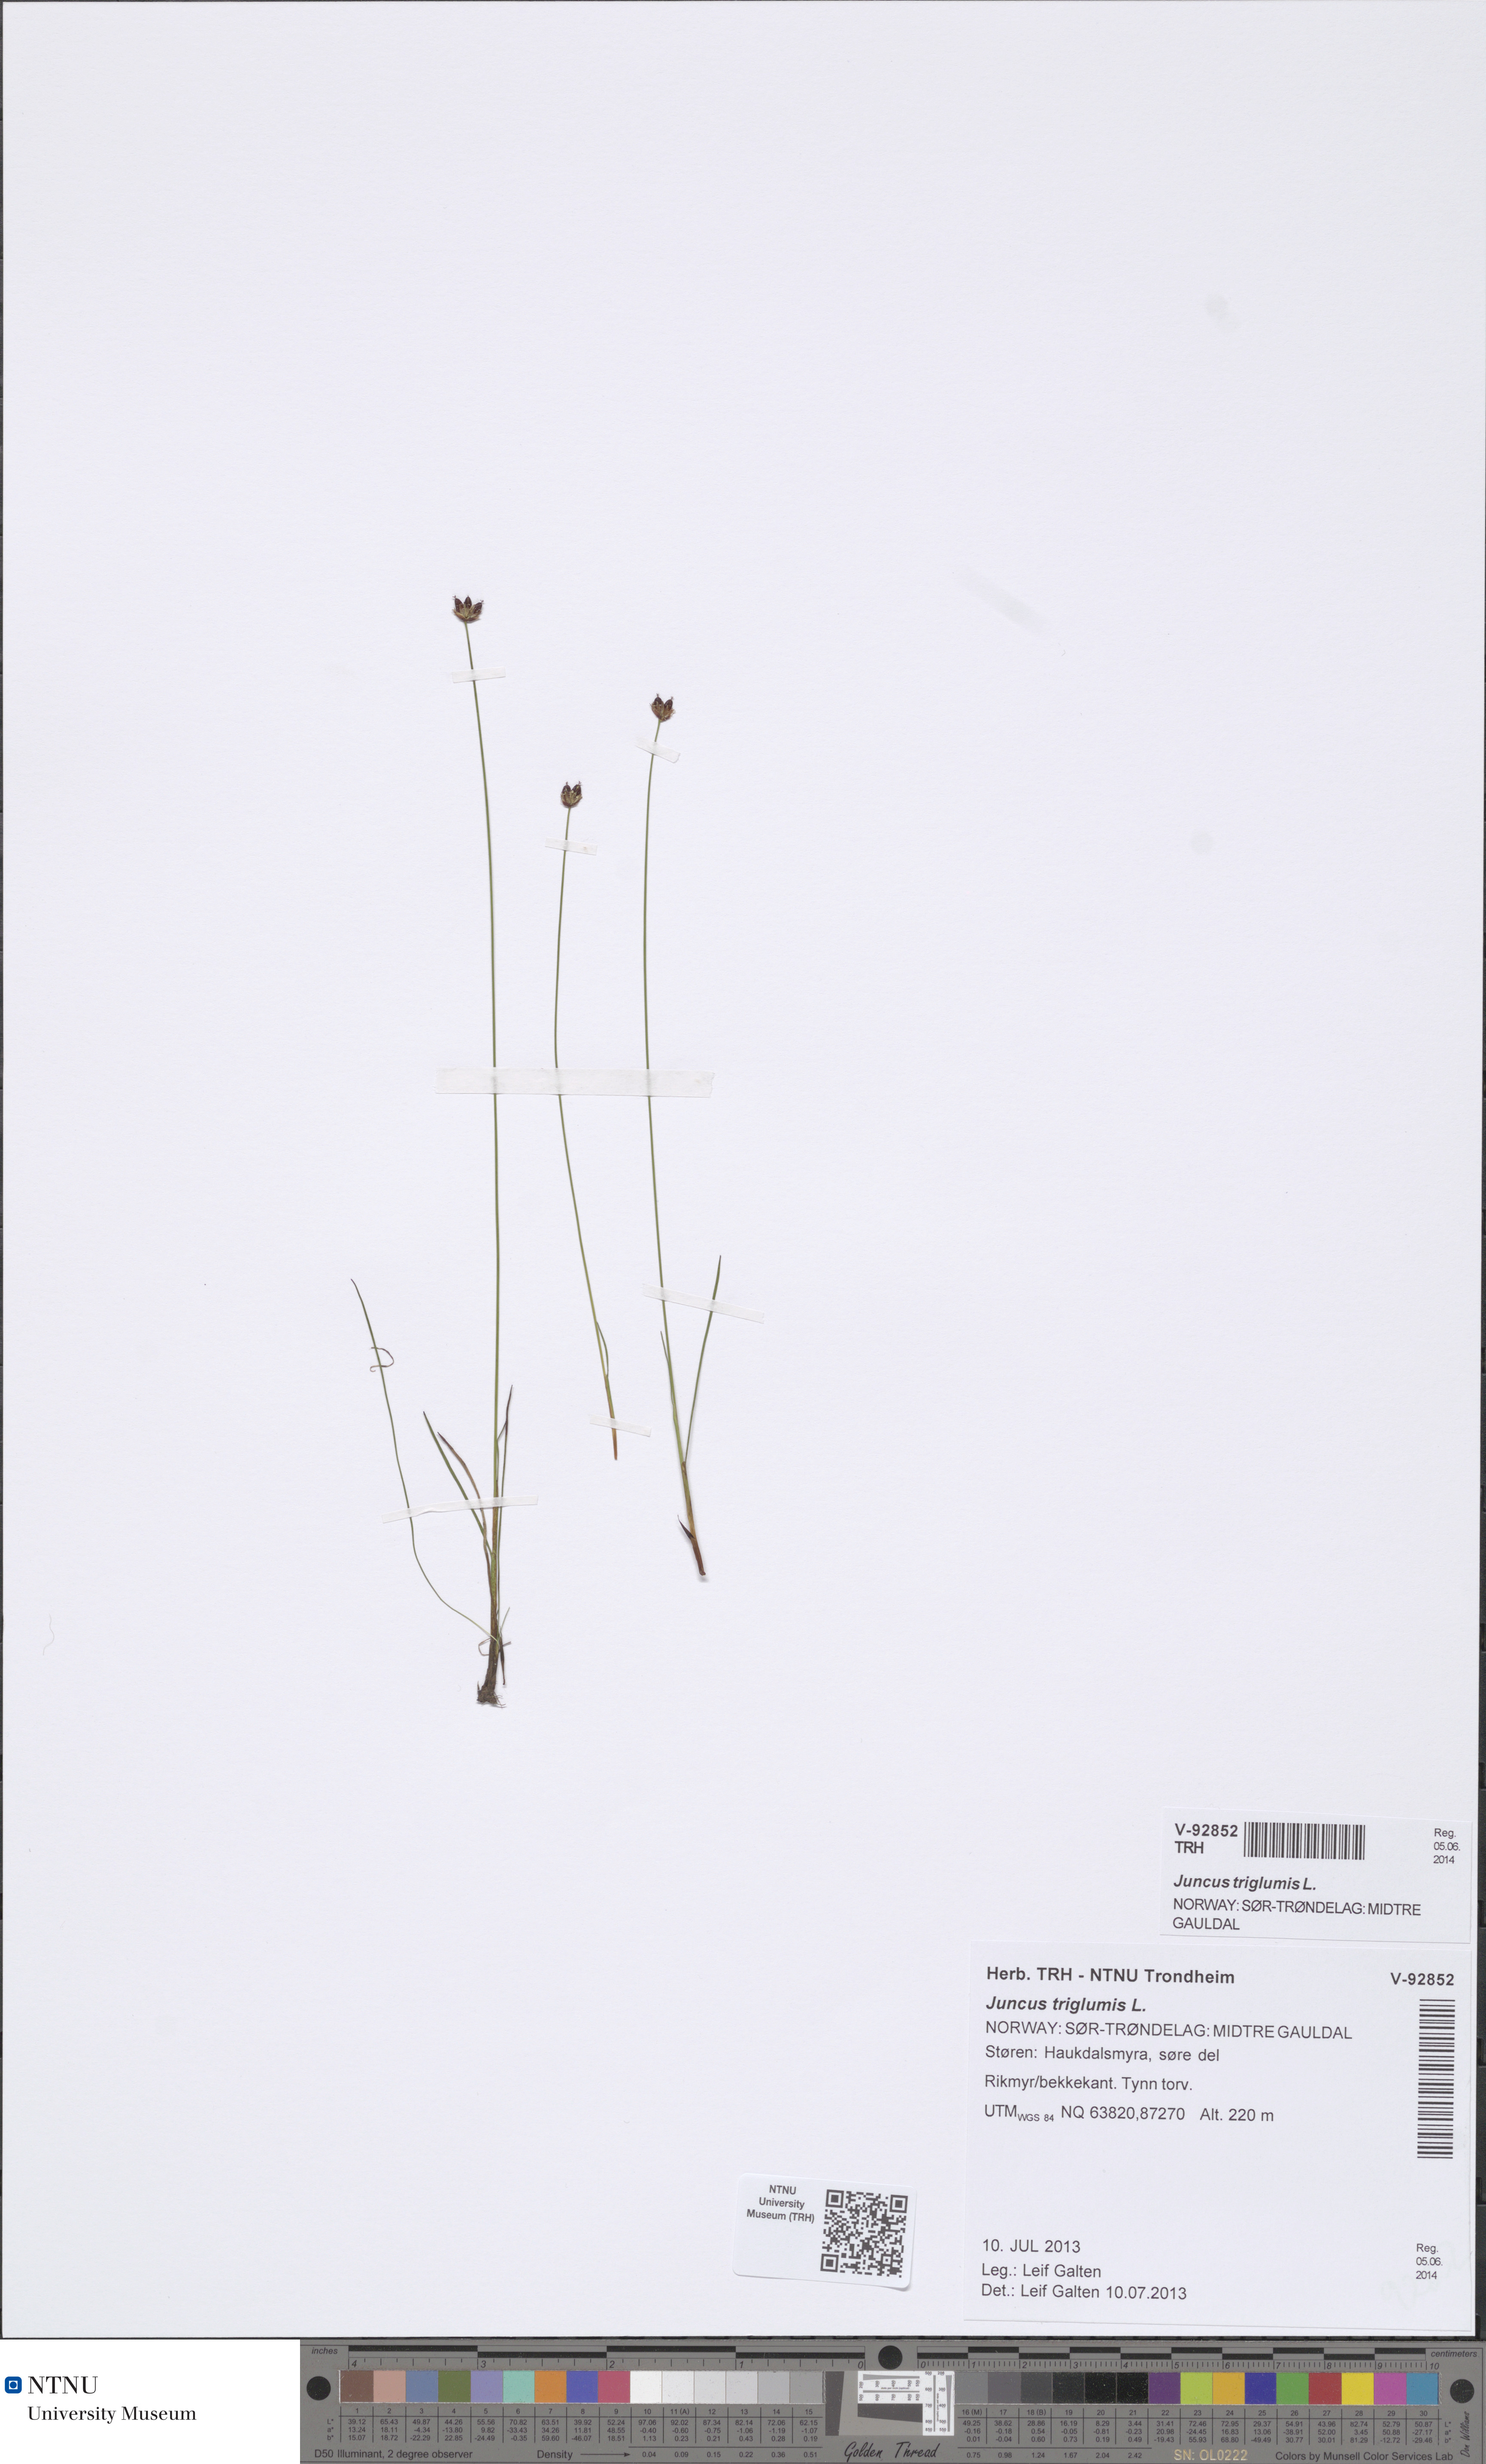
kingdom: Plantae
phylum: Tracheophyta
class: Liliopsida
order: Poales
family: Juncaceae
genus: Juncus
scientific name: Juncus triglumis
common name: Three-flowered rush
